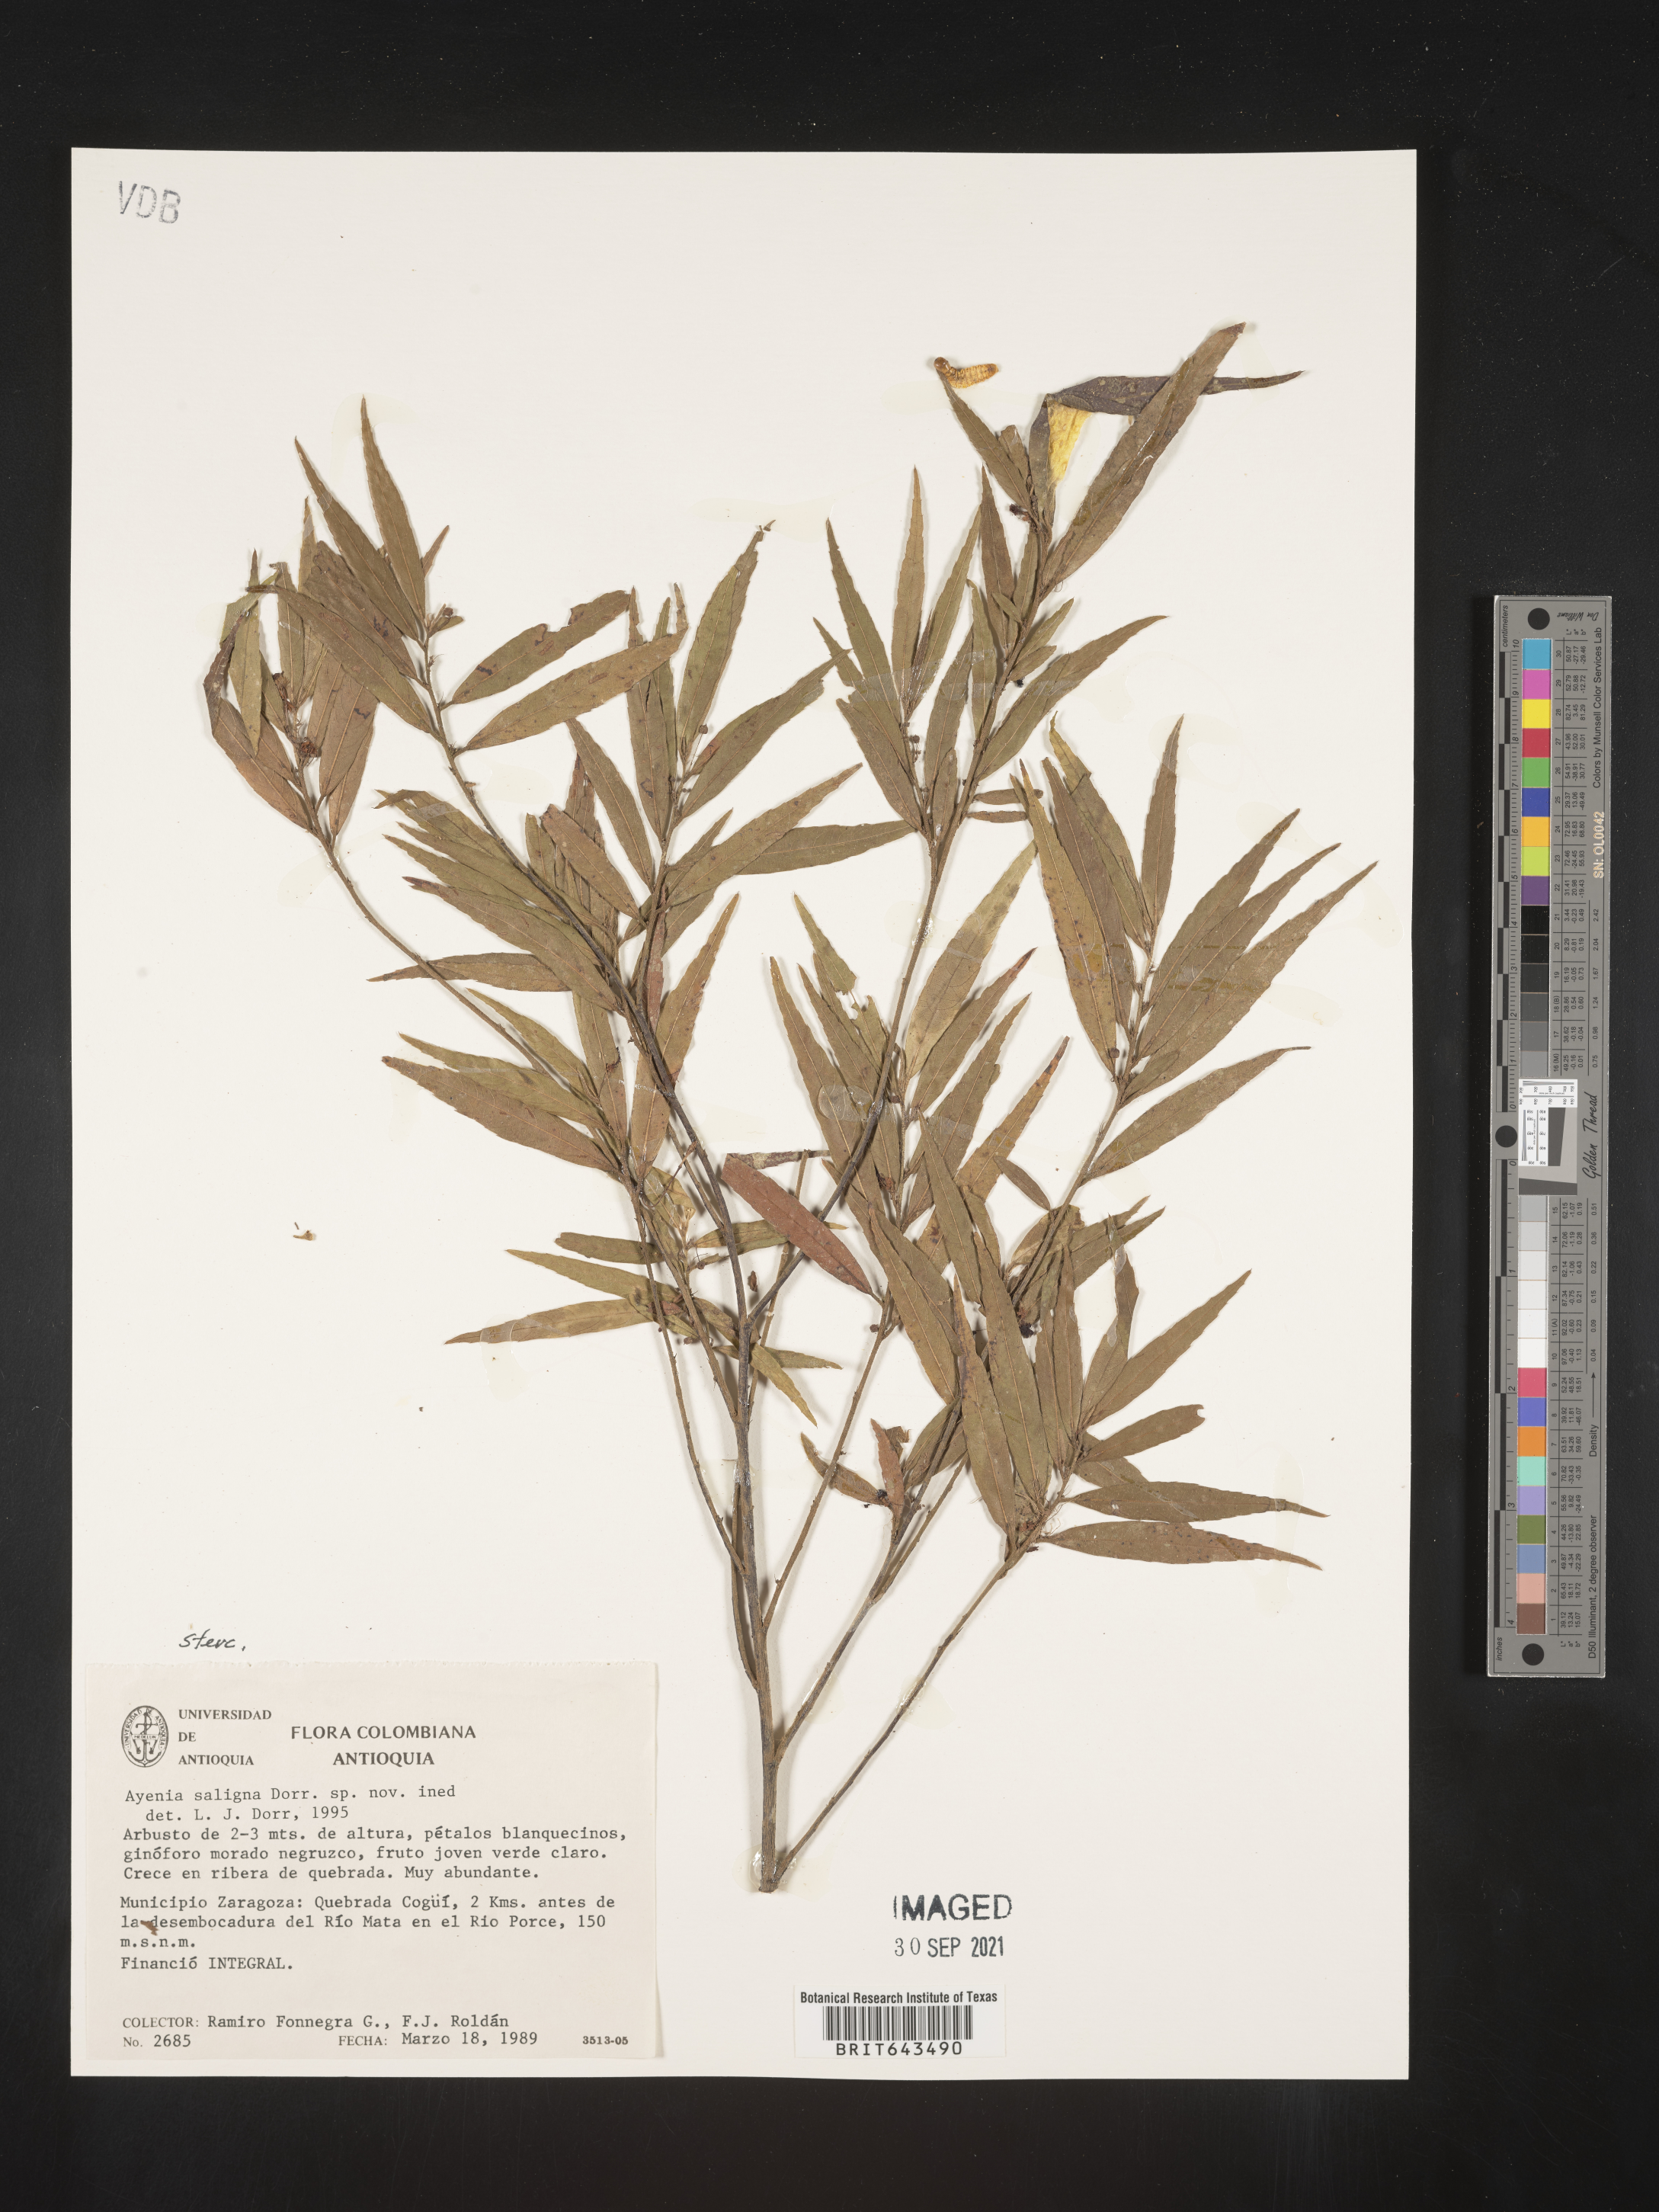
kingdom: Plantae
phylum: Tracheophyta
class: Magnoliopsida
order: Malvales
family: Malvaceae
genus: Ayenia
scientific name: Ayenia
